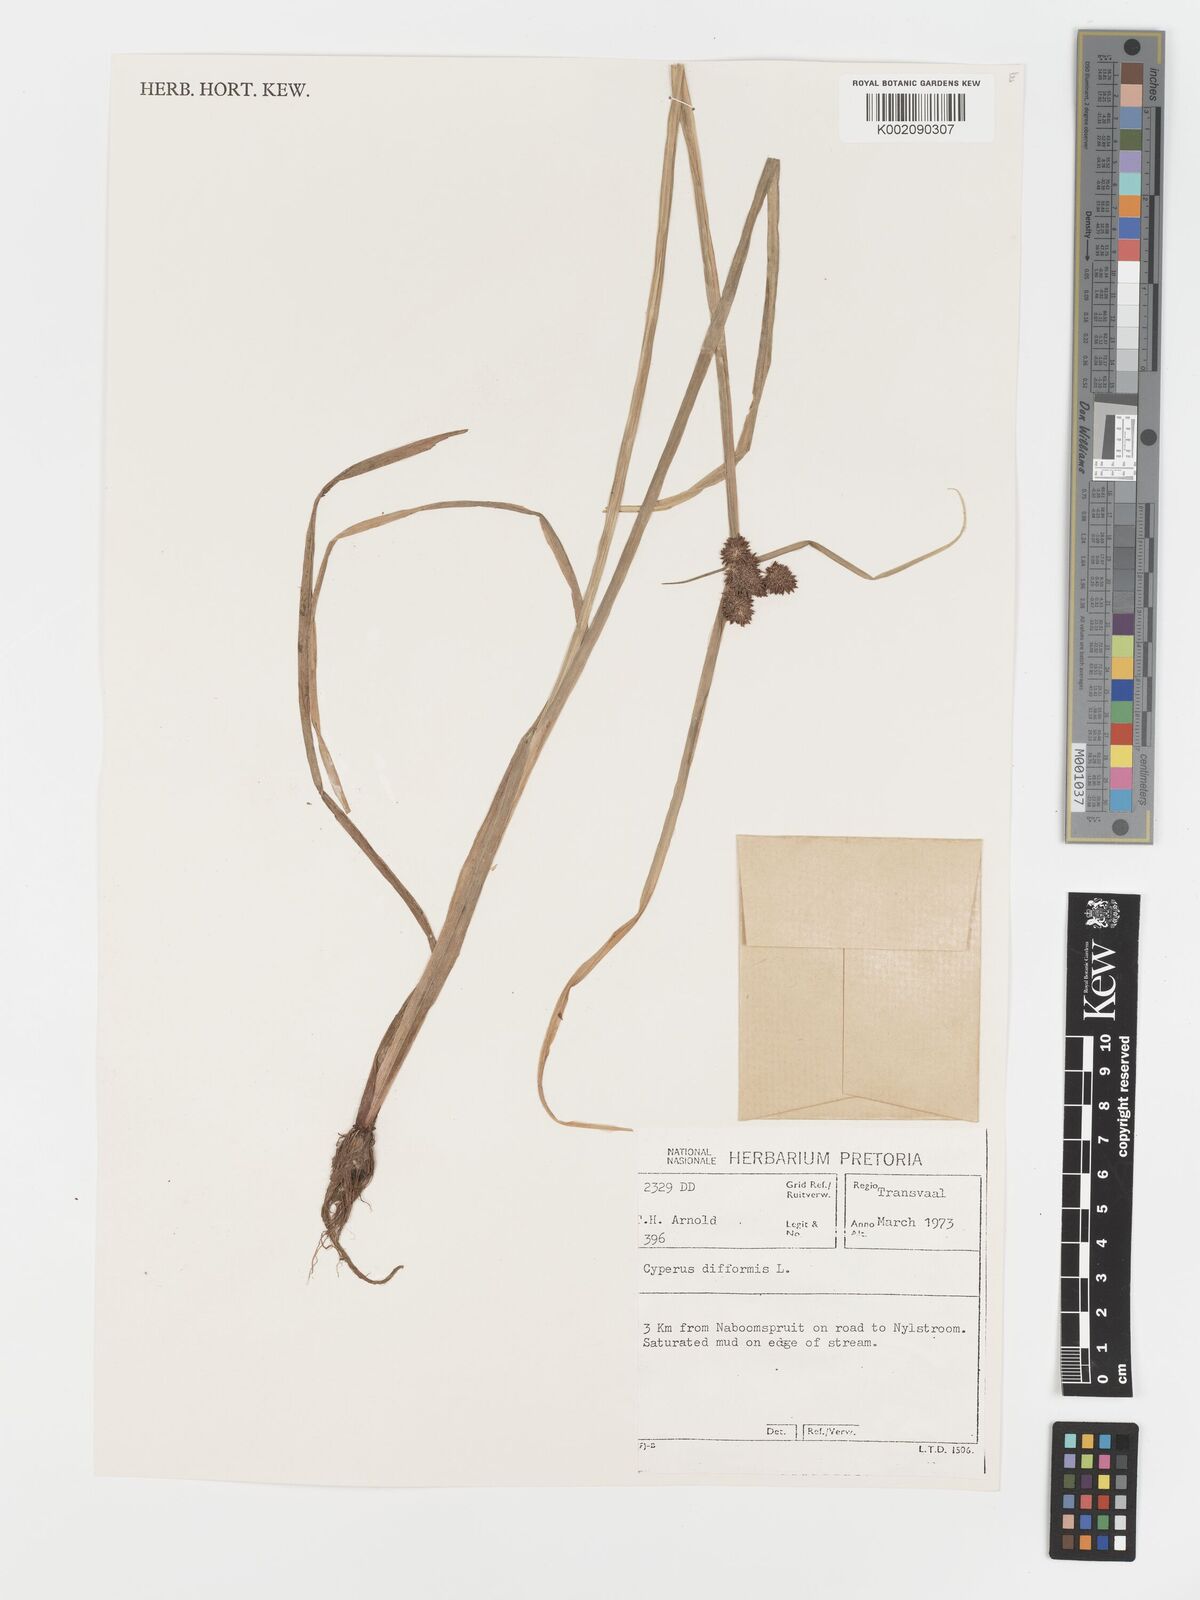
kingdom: Plantae
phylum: Tracheophyta
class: Liliopsida
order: Poales
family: Cyperaceae
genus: Cyperus
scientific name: Cyperus difformis
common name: Variable flatsedge
